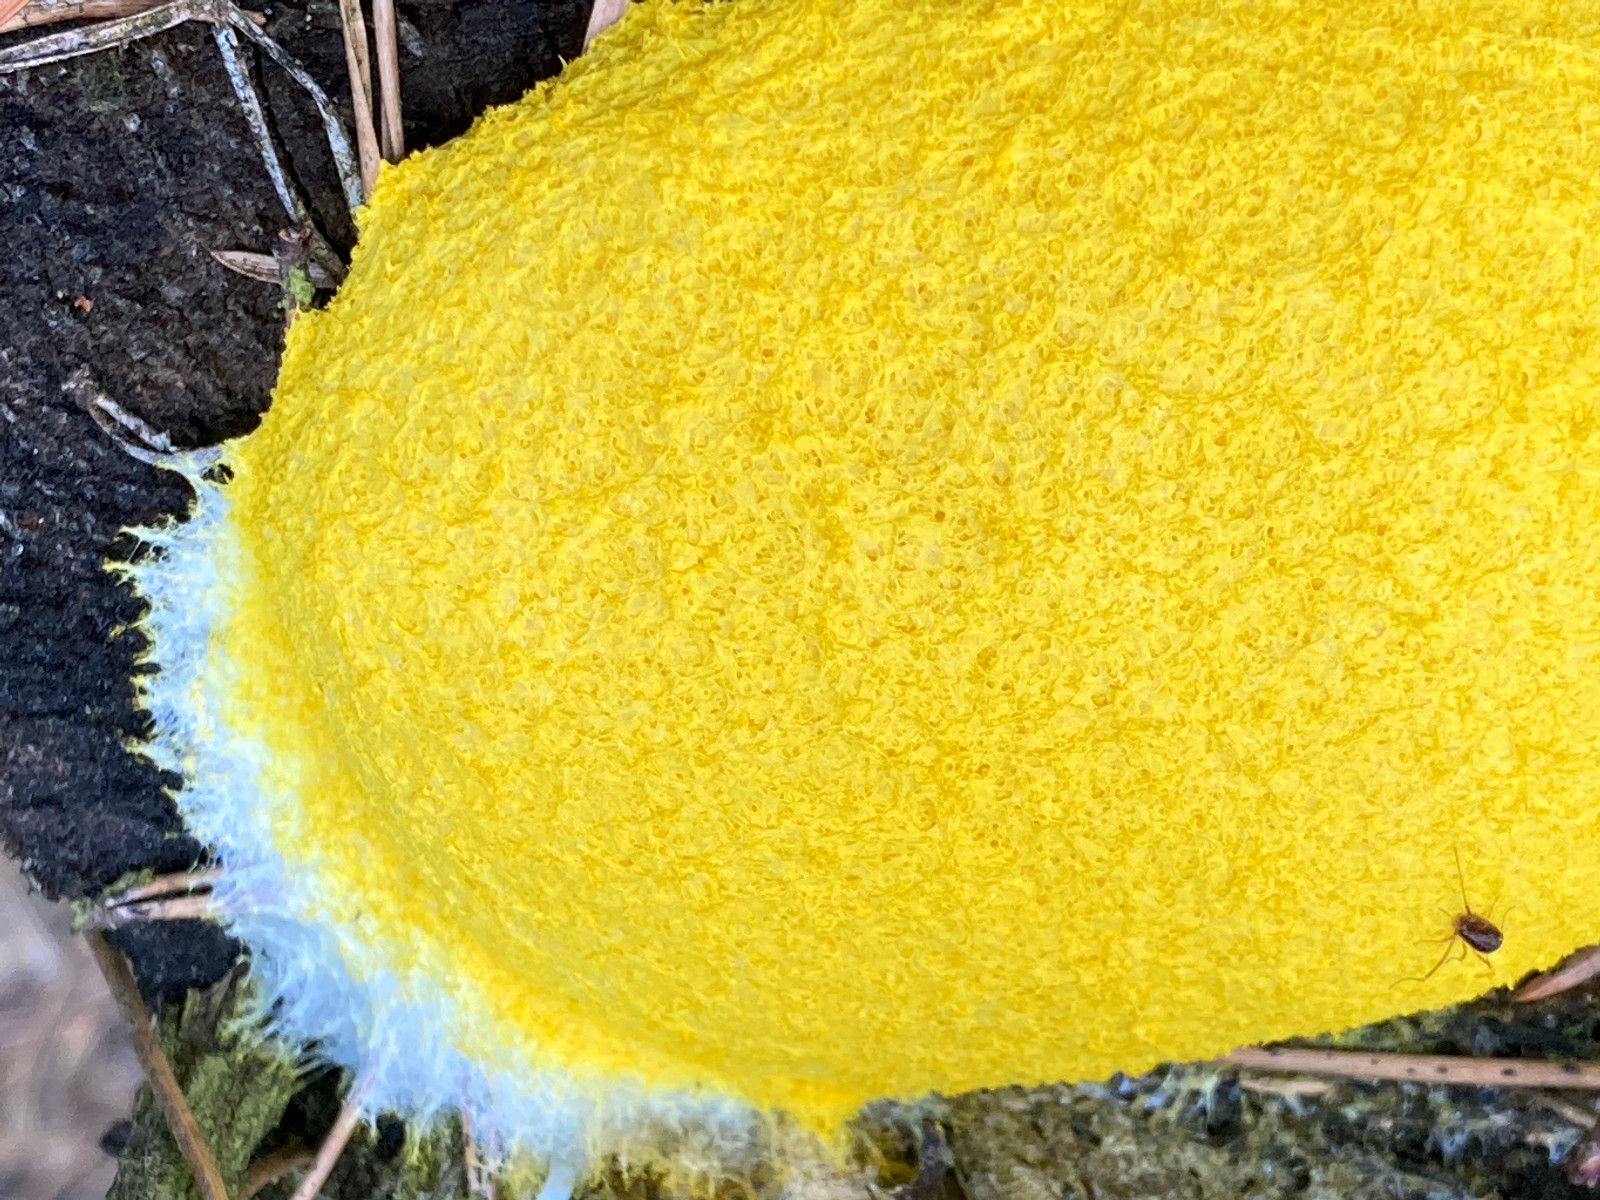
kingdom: Protozoa
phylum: Mycetozoa
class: Myxomycetes
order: Physarales
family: Physaraceae
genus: Fuligo
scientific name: Fuligo septica
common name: gul troldsmør
